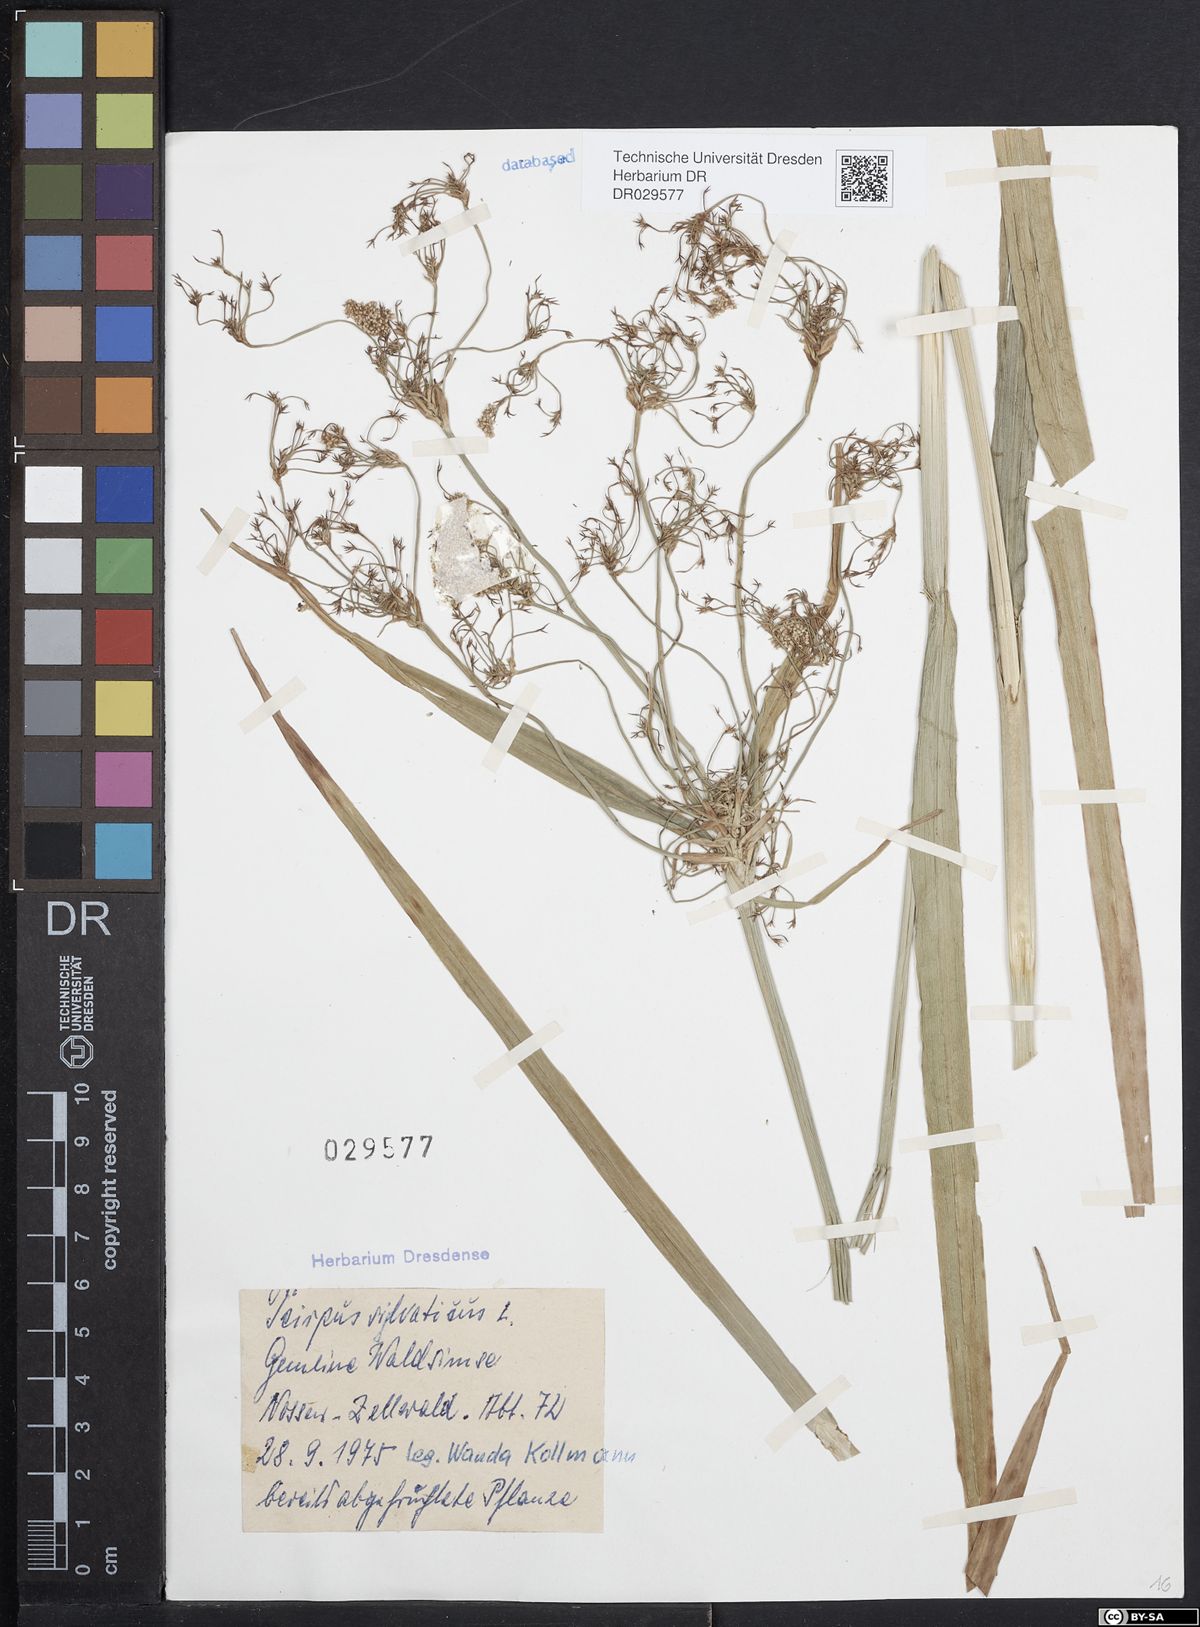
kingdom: Plantae
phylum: Tracheophyta
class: Liliopsida
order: Poales
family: Cyperaceae
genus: Scirpus
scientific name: Scirpus sylvaticus
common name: Wood club-rush
